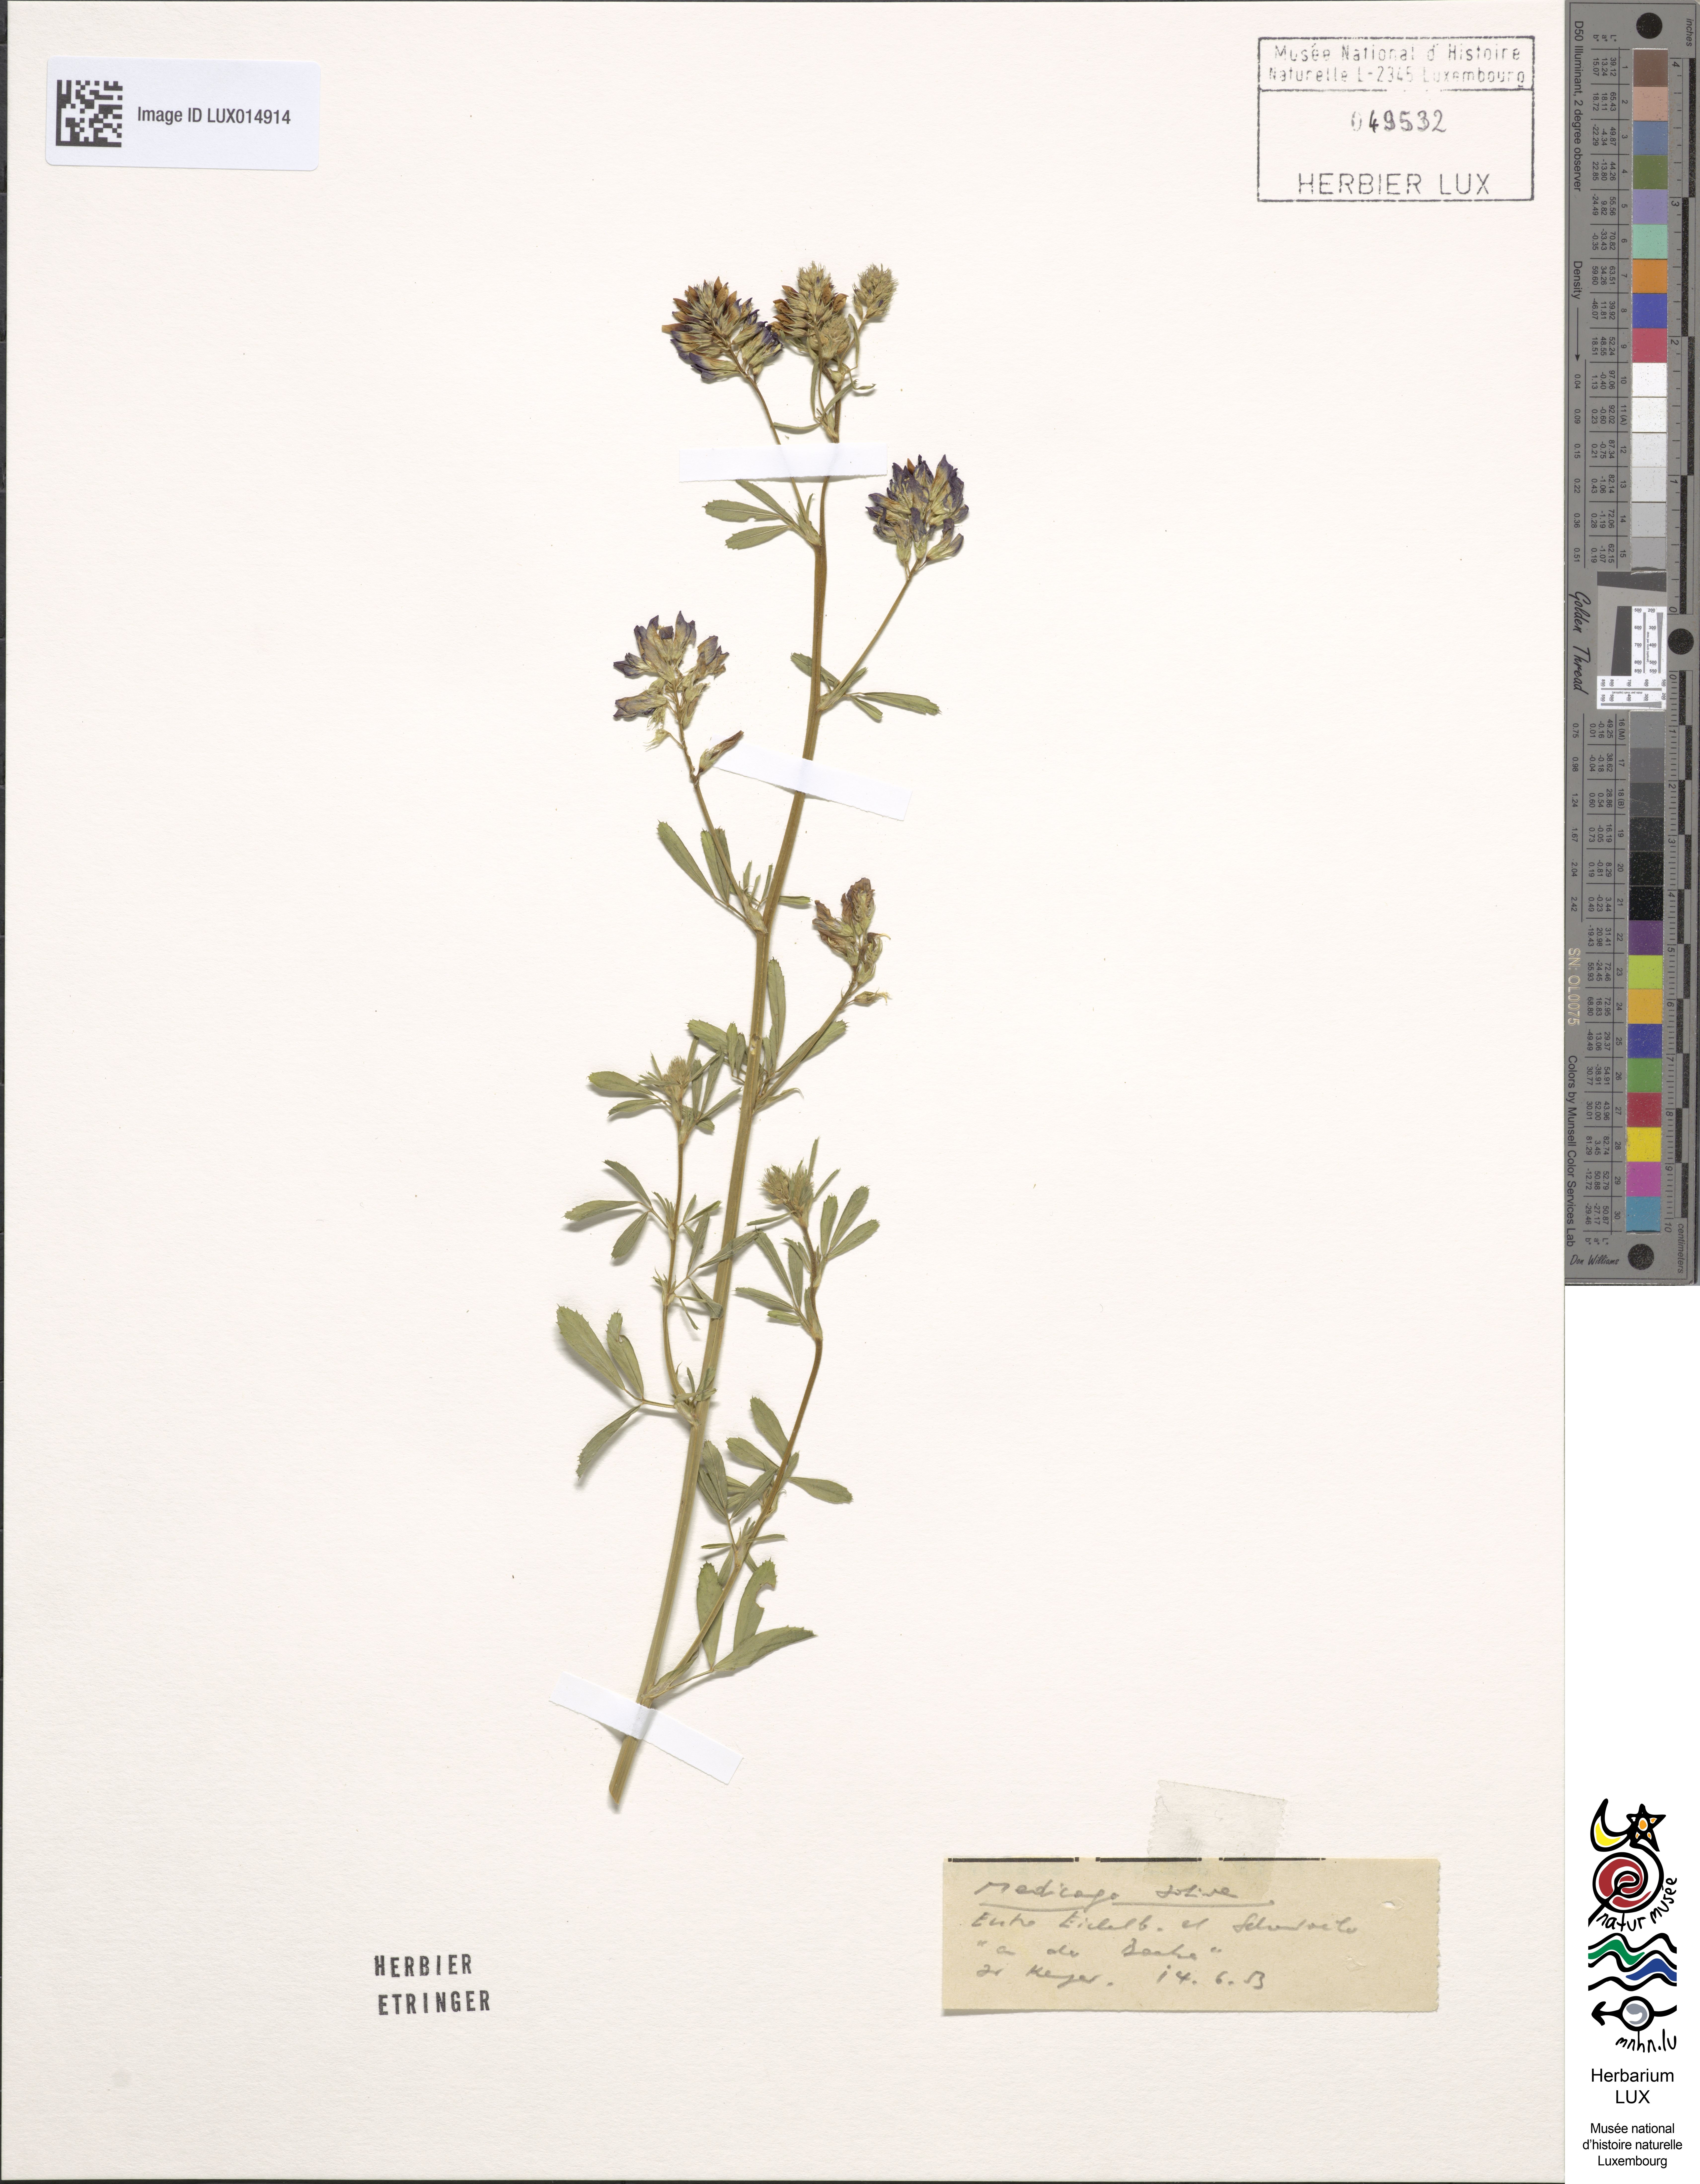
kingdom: Plantae
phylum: Tracheophyta
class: Magnoliopsida
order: Fabales
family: Fabaceae
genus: Medicago
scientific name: Medicago sativa
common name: Alfalfa
